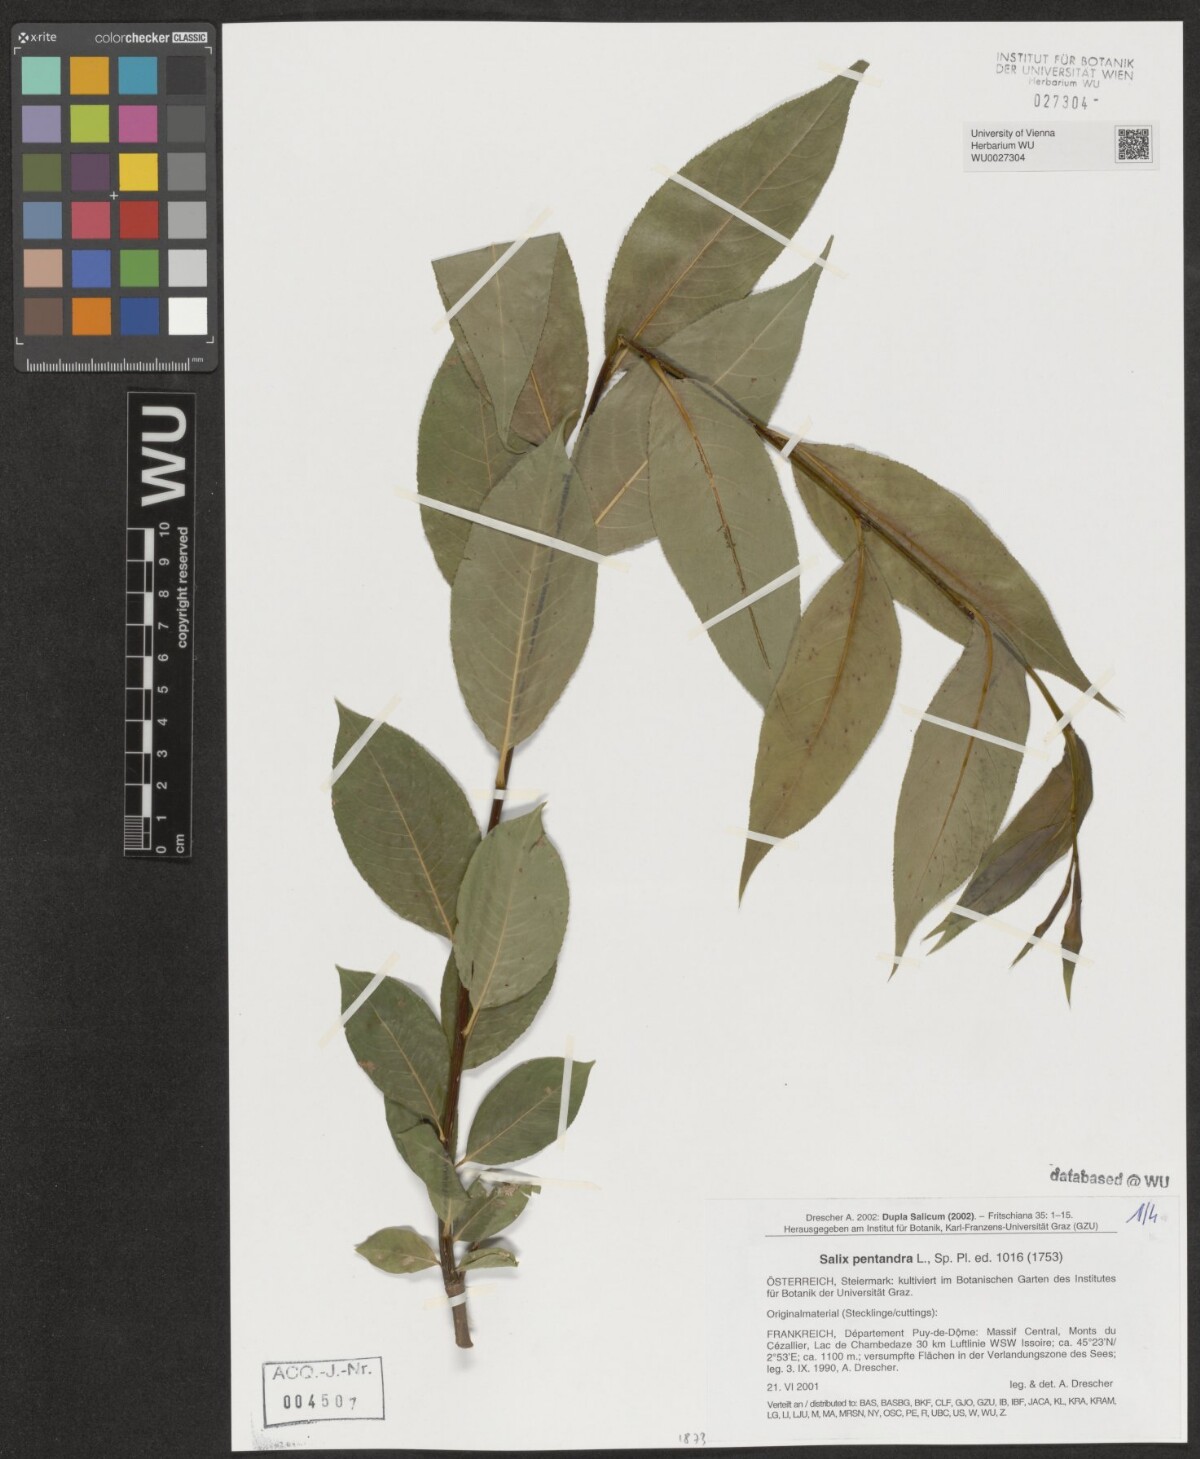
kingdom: Plantae
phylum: Tracheophyta
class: Magnoliopsida
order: Malpighiales
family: Salicaceae
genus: Salix
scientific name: Salix pentandra
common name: Bay willow
